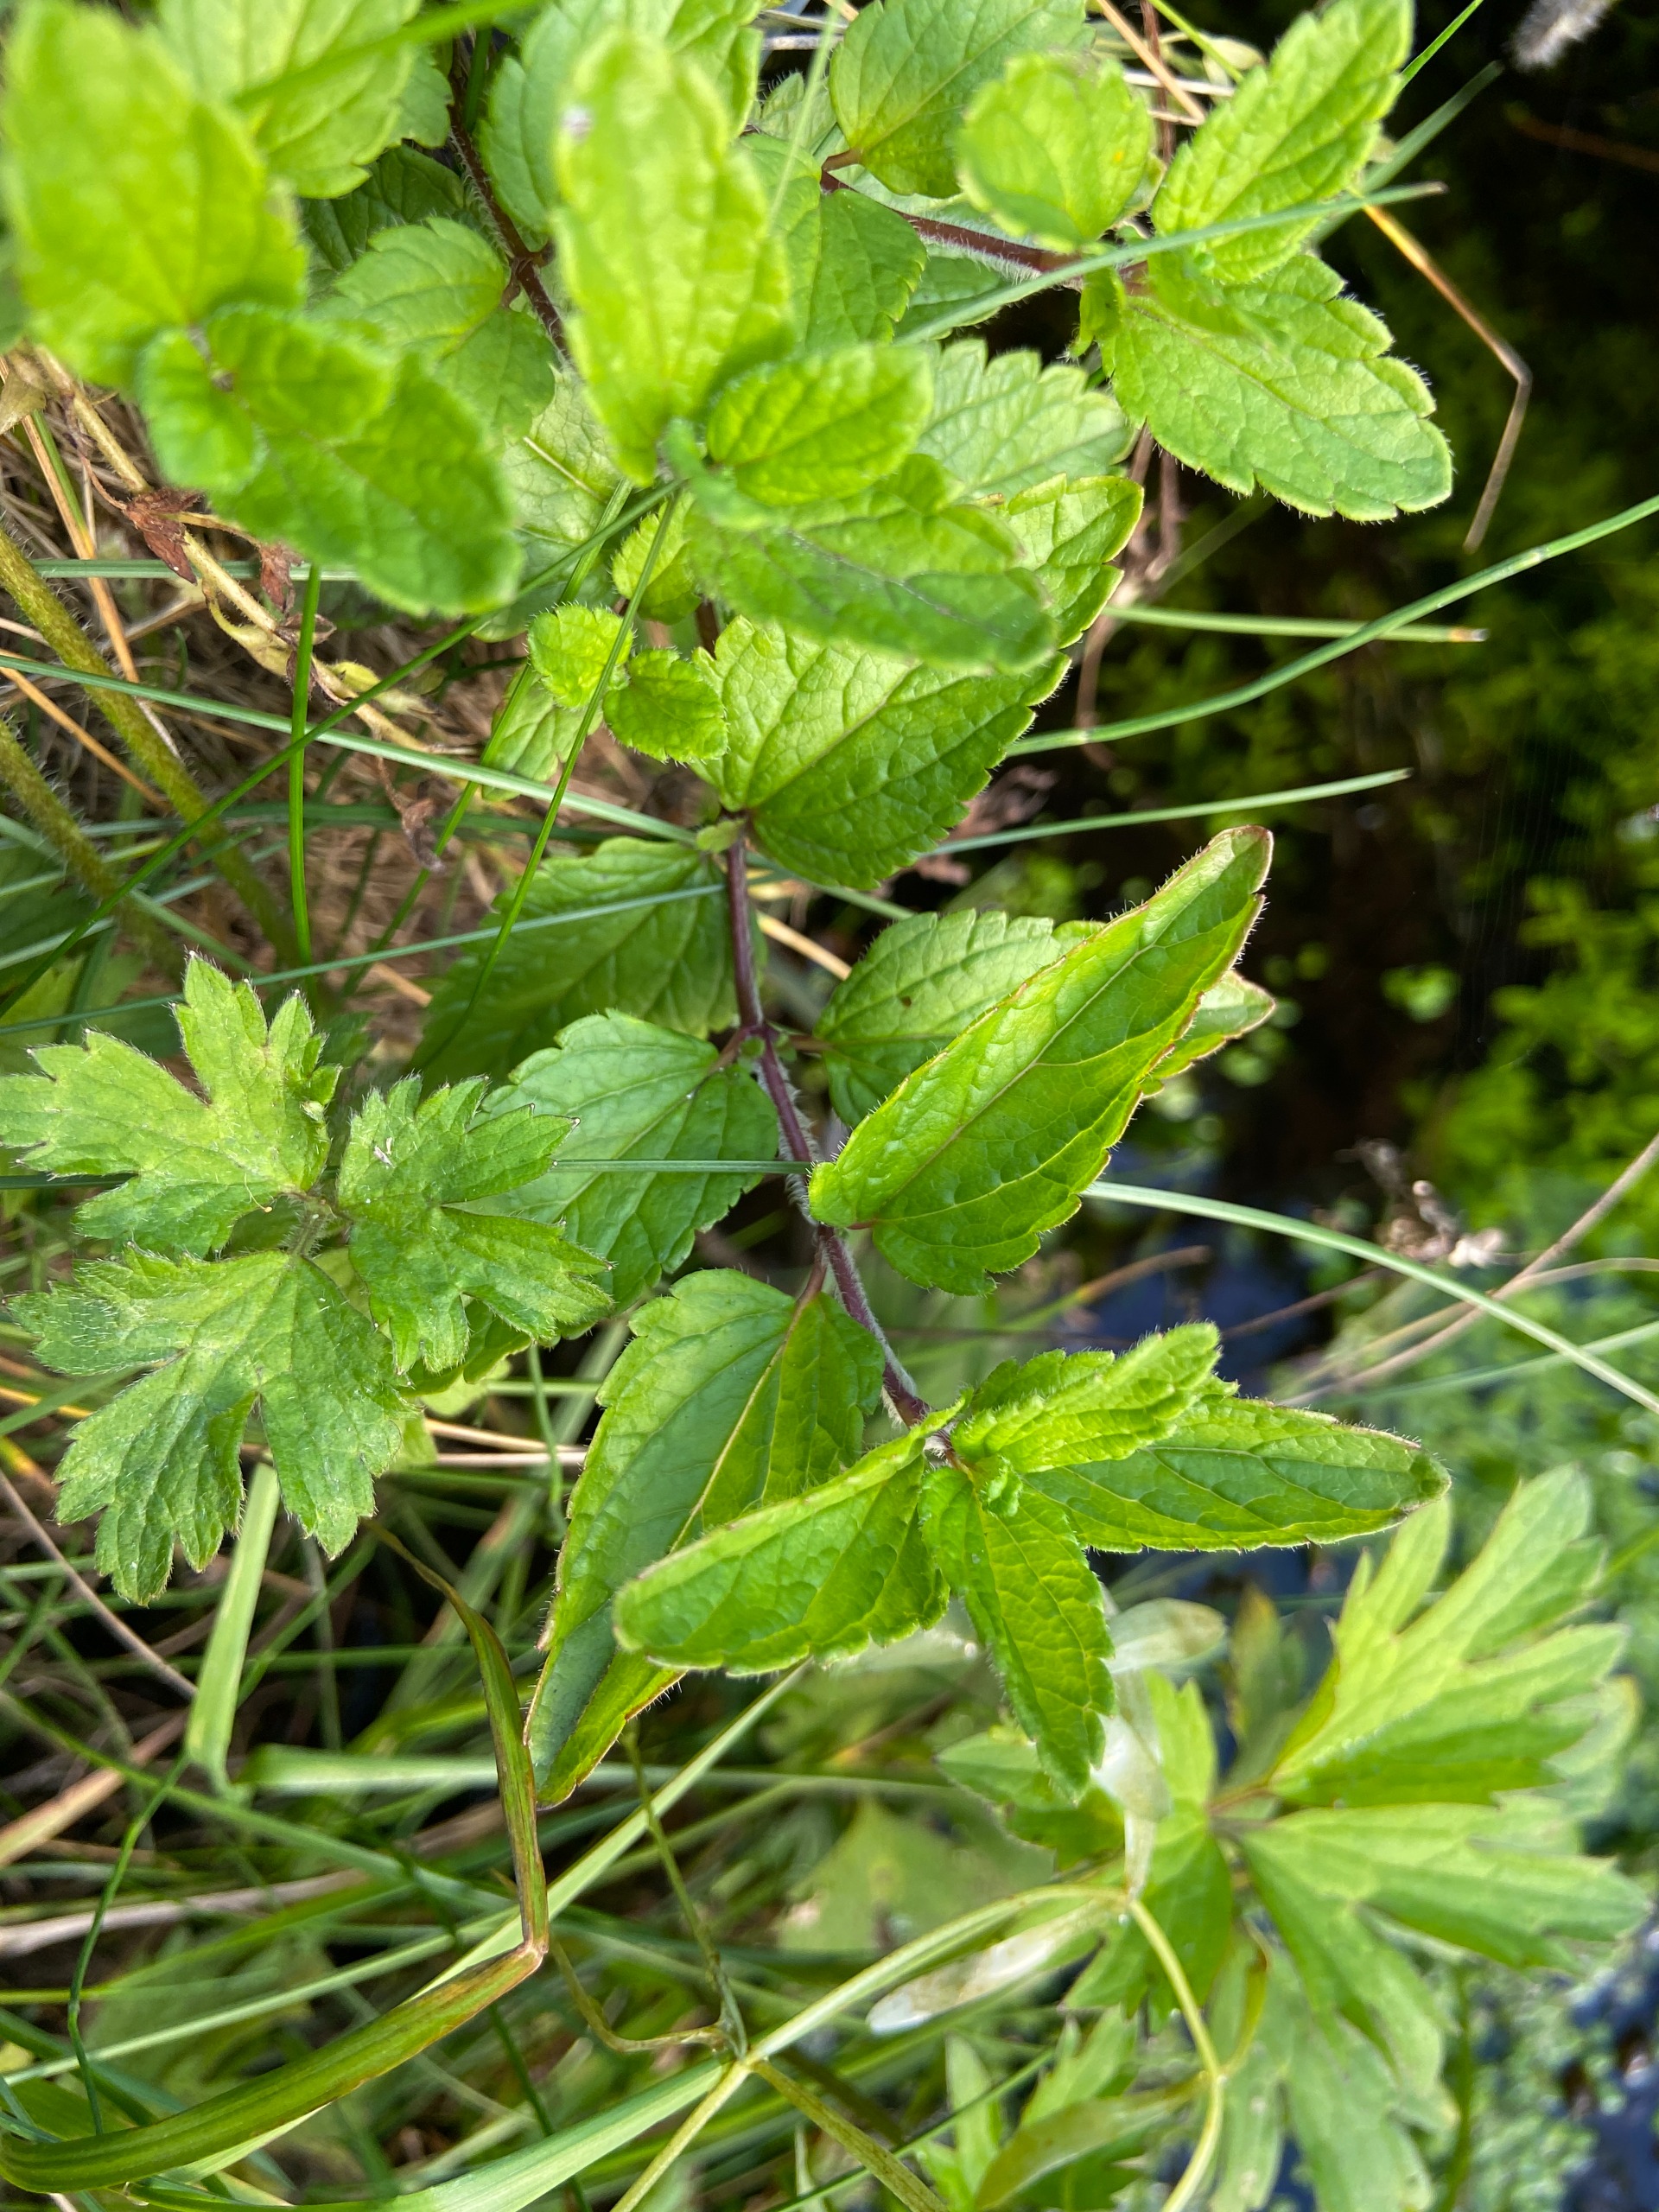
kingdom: Plantae
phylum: Tracheophyta
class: Magnoliopsida
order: Lamiales
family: Plantaginaceae
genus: Veronica
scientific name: Veronica chamaedrys
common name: Tveskægget ærenpris
